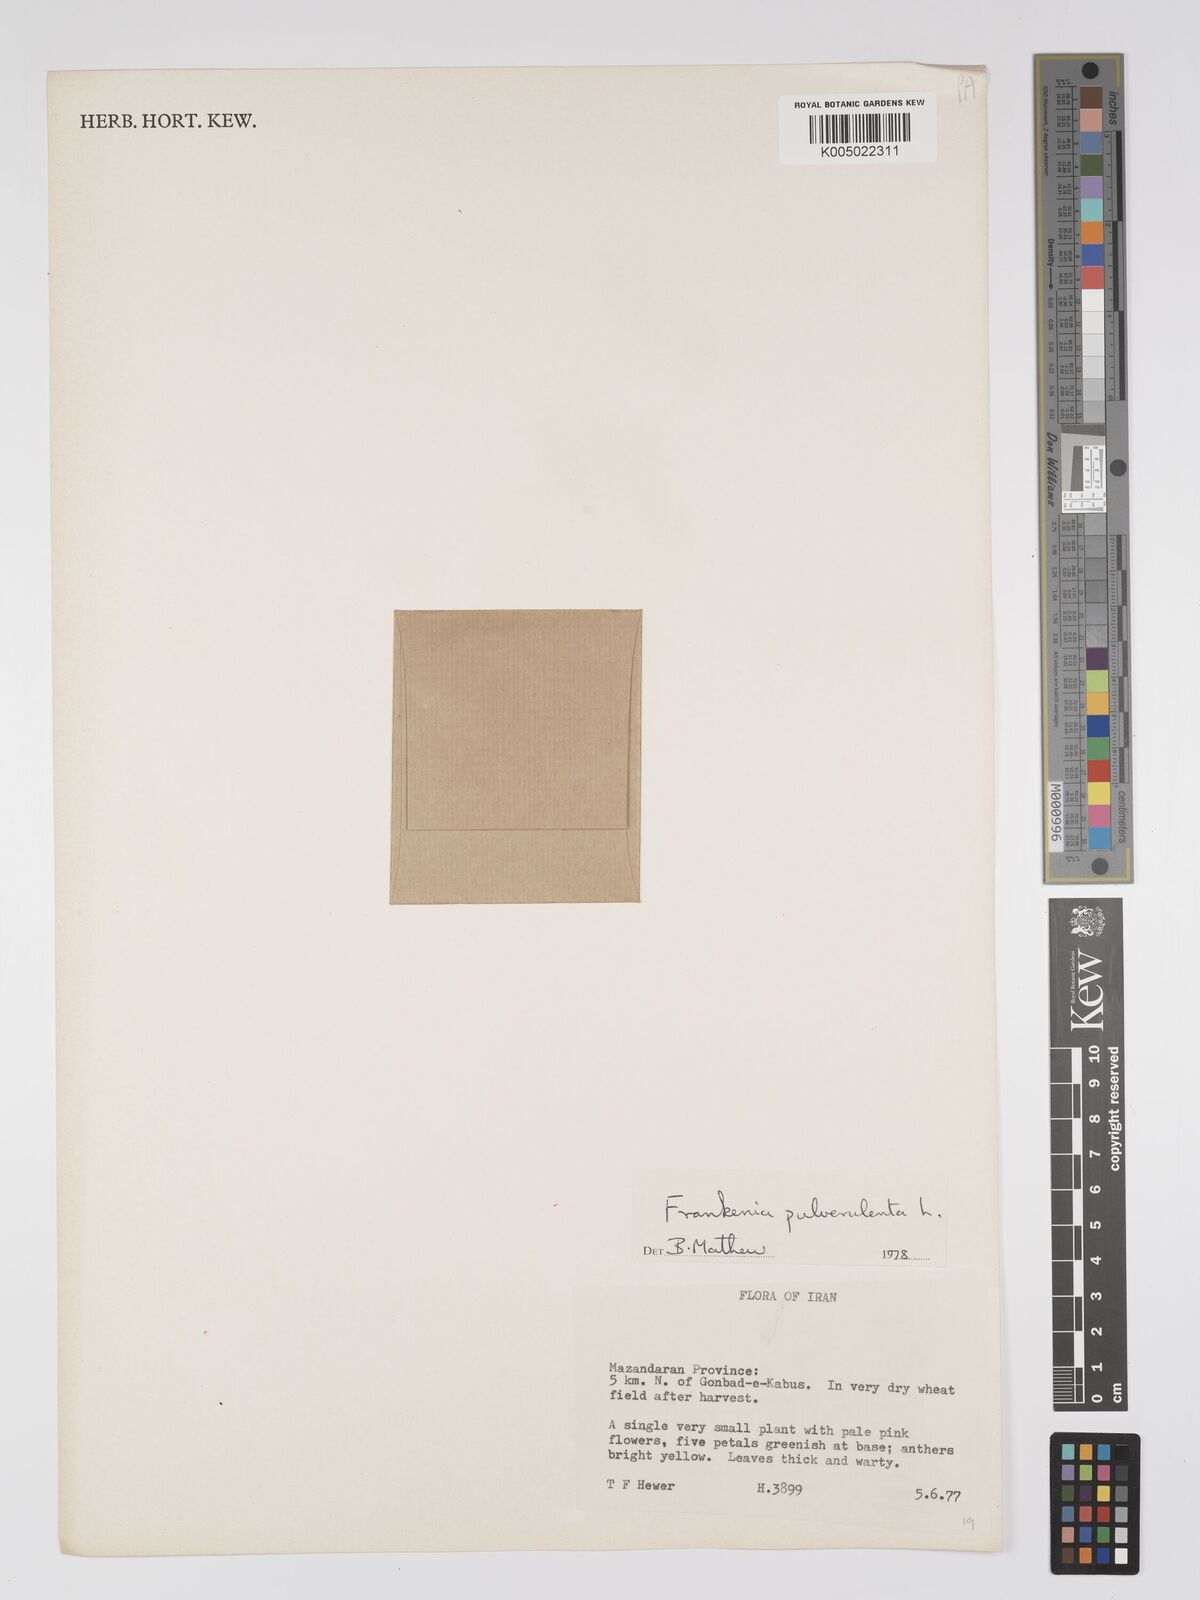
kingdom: Plantae
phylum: Tracheophyta
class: Magnoliopsida
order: Caryophyllales
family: Frankeniaceae
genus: Frankenia
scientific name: Frankenia pulverulenta
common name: European seaheath
